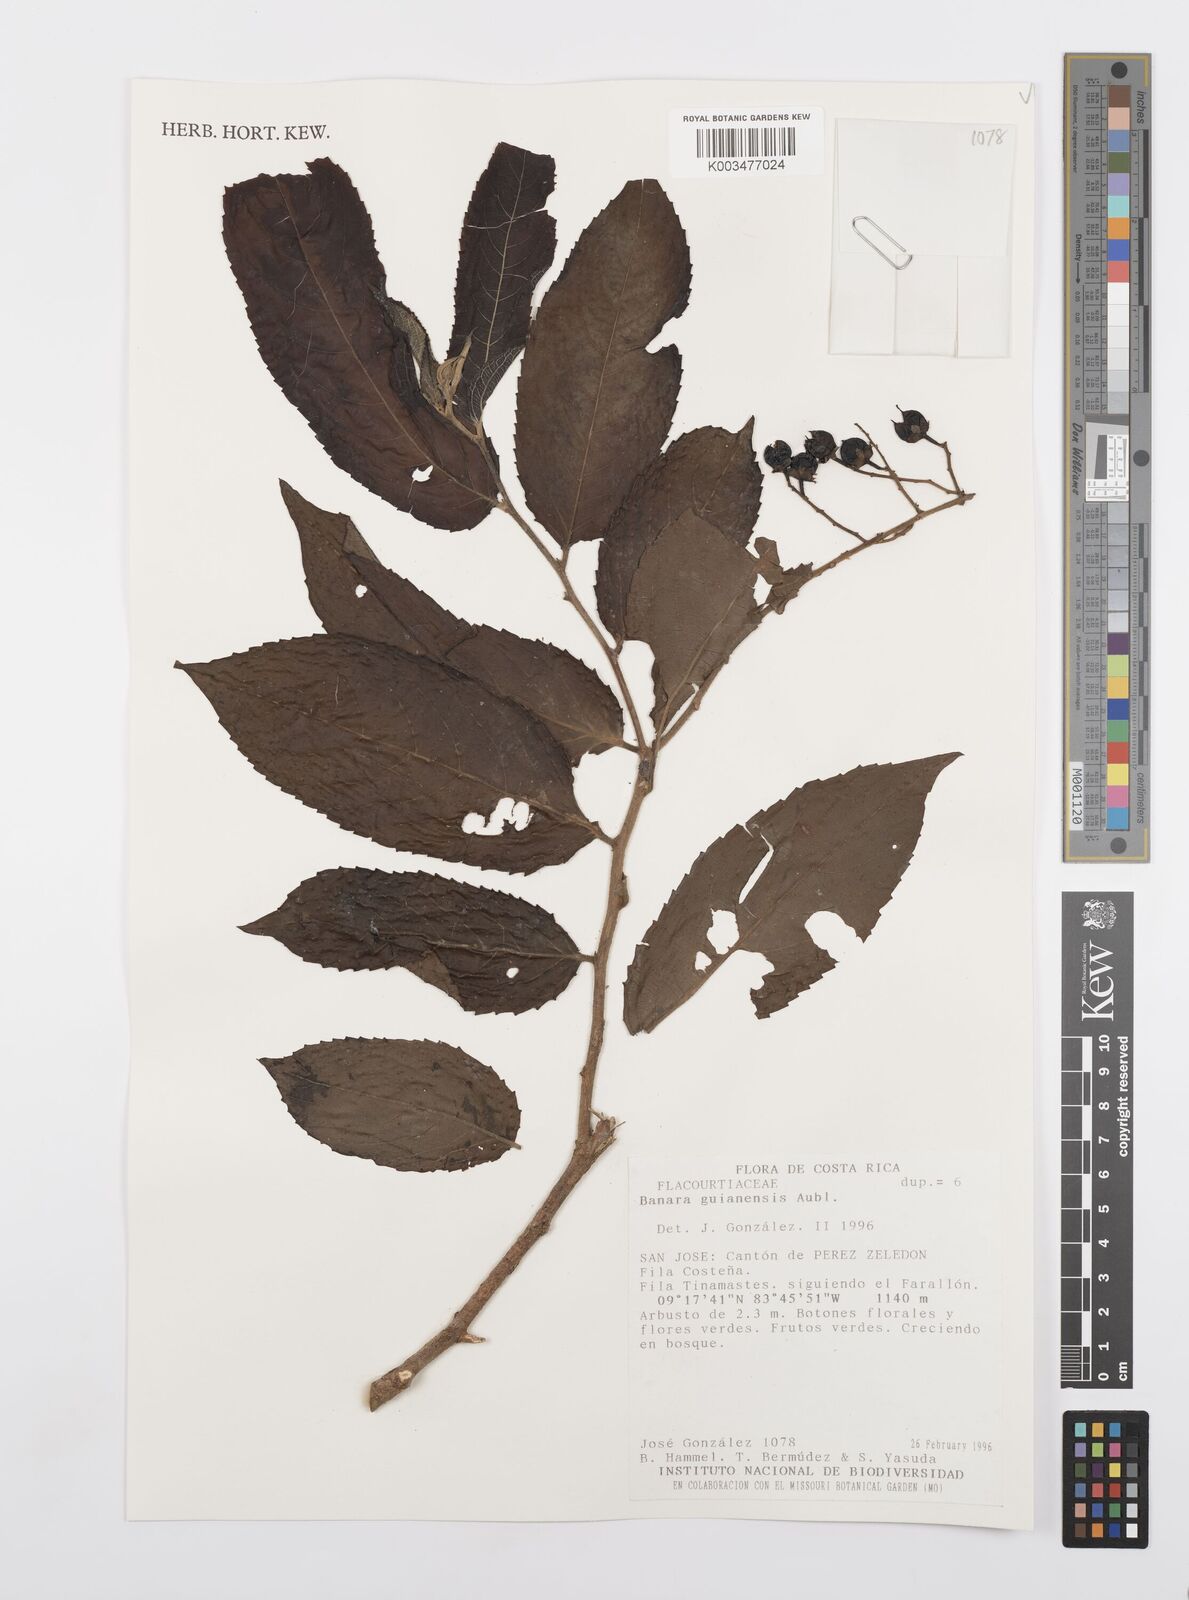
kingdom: Plantae
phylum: Tracheophyta
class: Magnoliopsida
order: Malpighiales
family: Salicaceae
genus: Banara
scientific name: Banara guianensis
